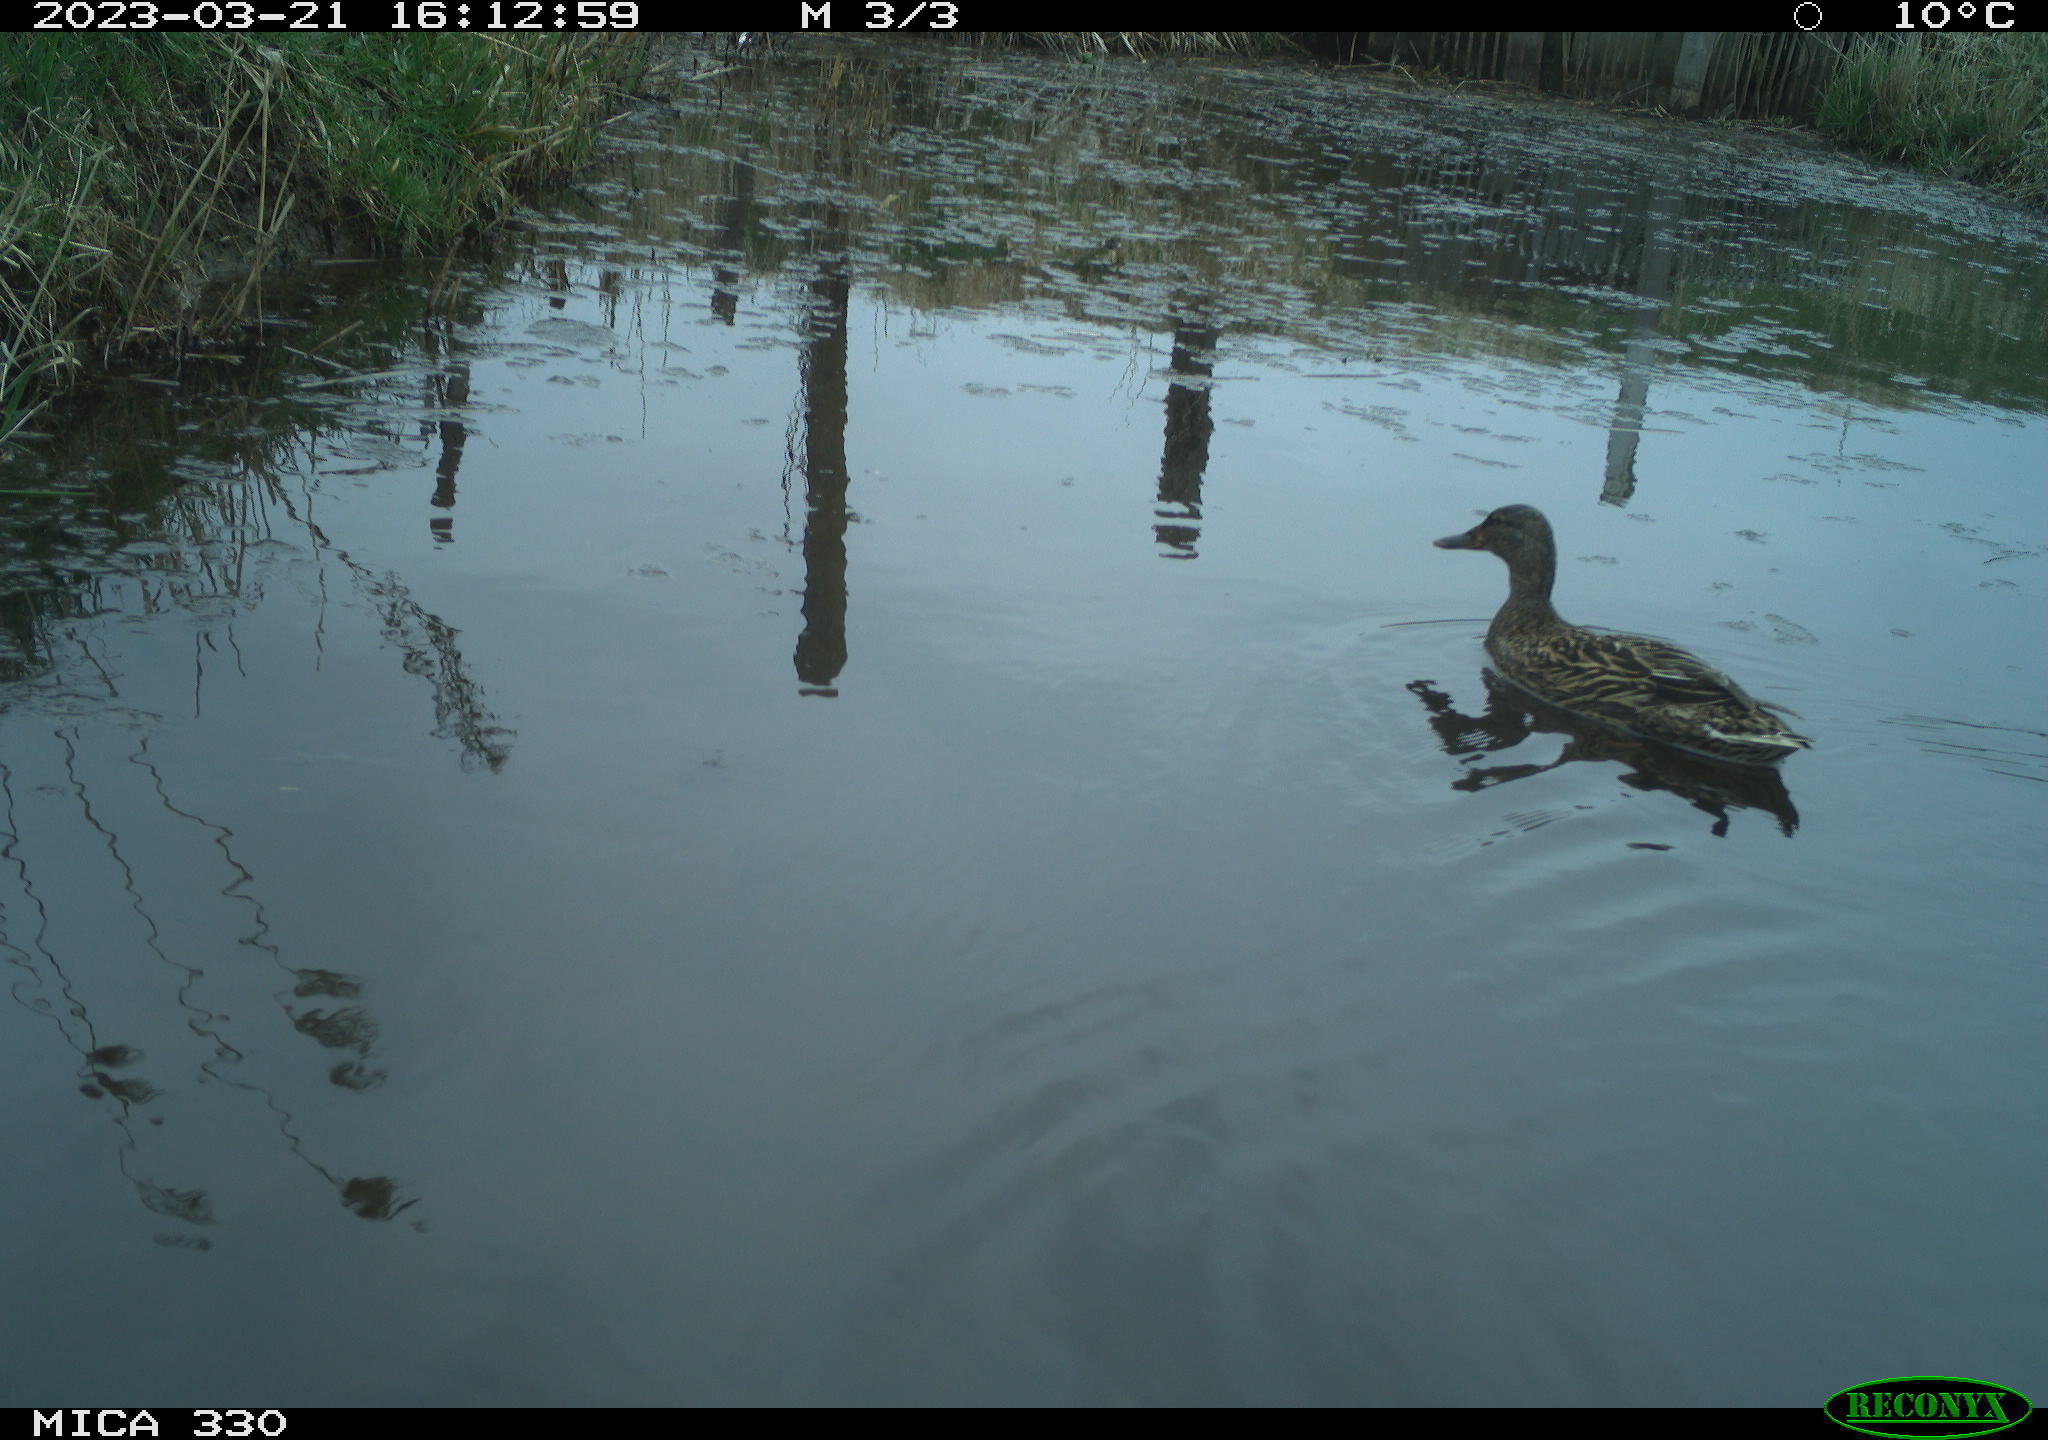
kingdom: Animalia
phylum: Chordata
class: Aves
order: Anseriformes
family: Anatidae
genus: Anas
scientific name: Anas platyrhynchos
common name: Mallard
